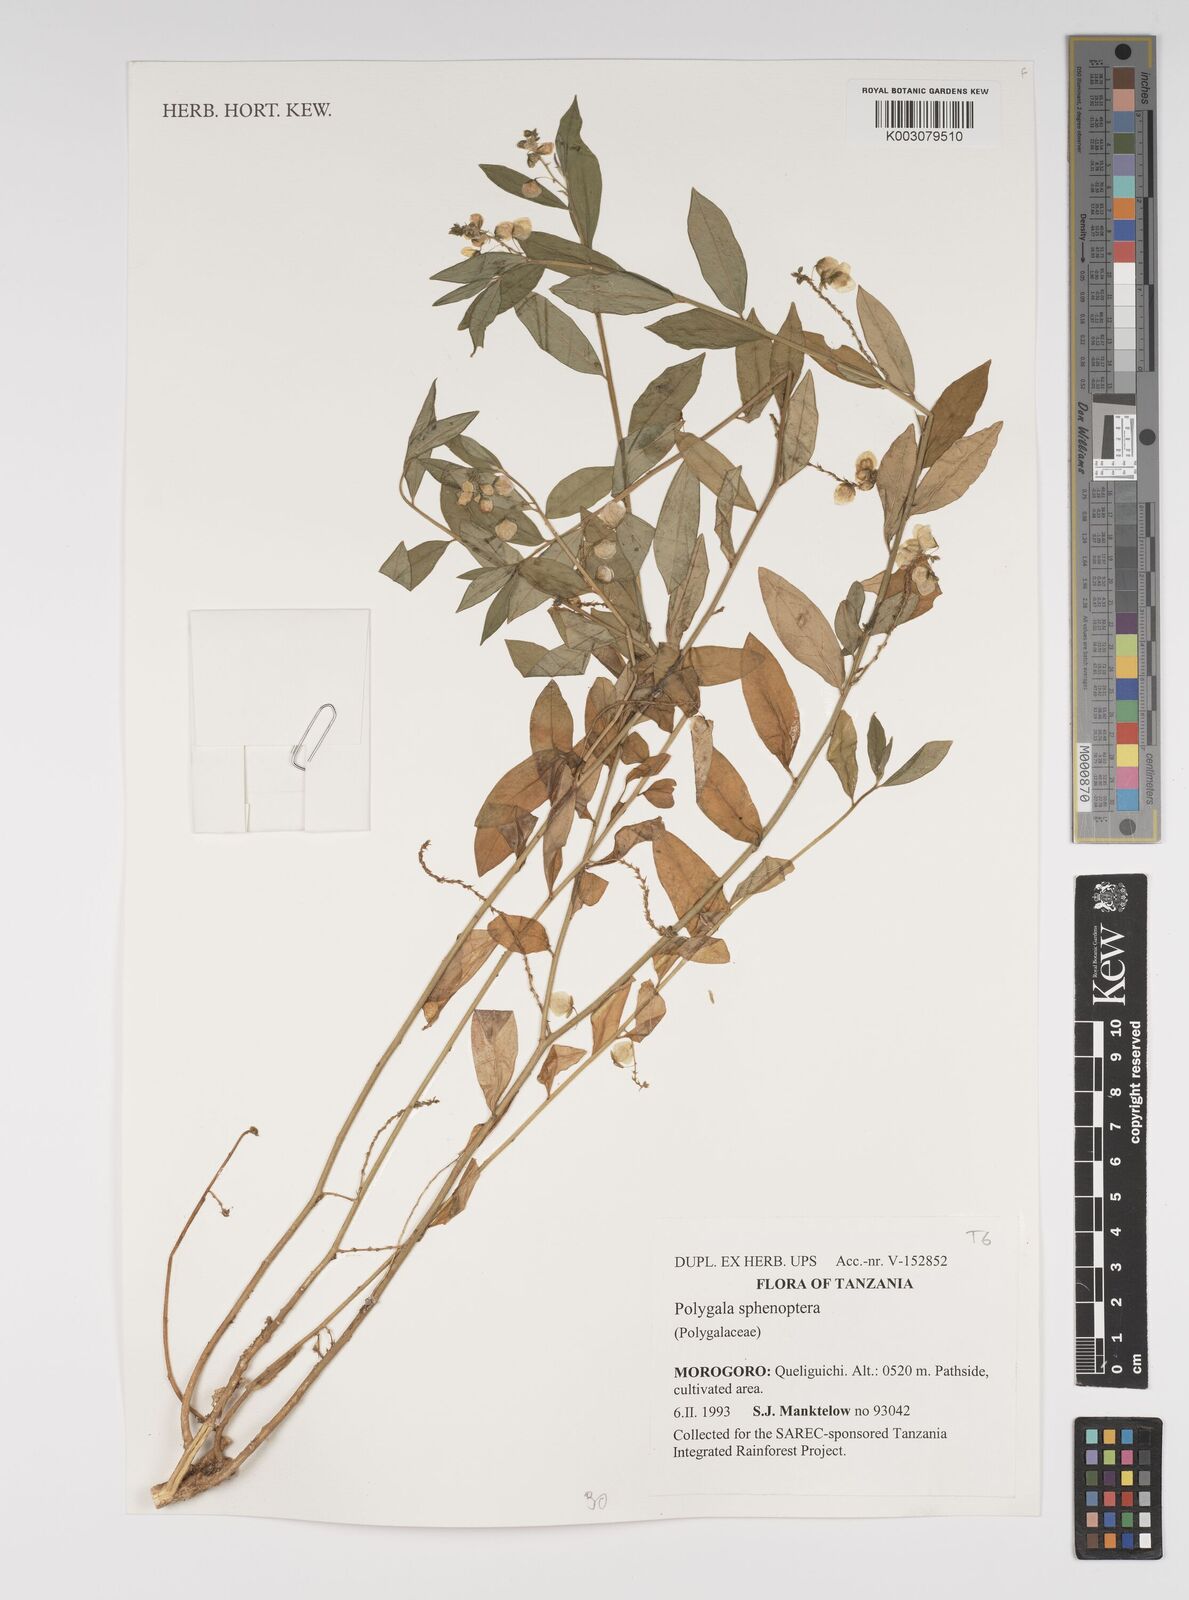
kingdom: Plantae
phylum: Tracheophyta
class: Magnoliopsida
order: Fabales
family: Polygalaceae
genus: Polygala
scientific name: Polygala sphenoptera
